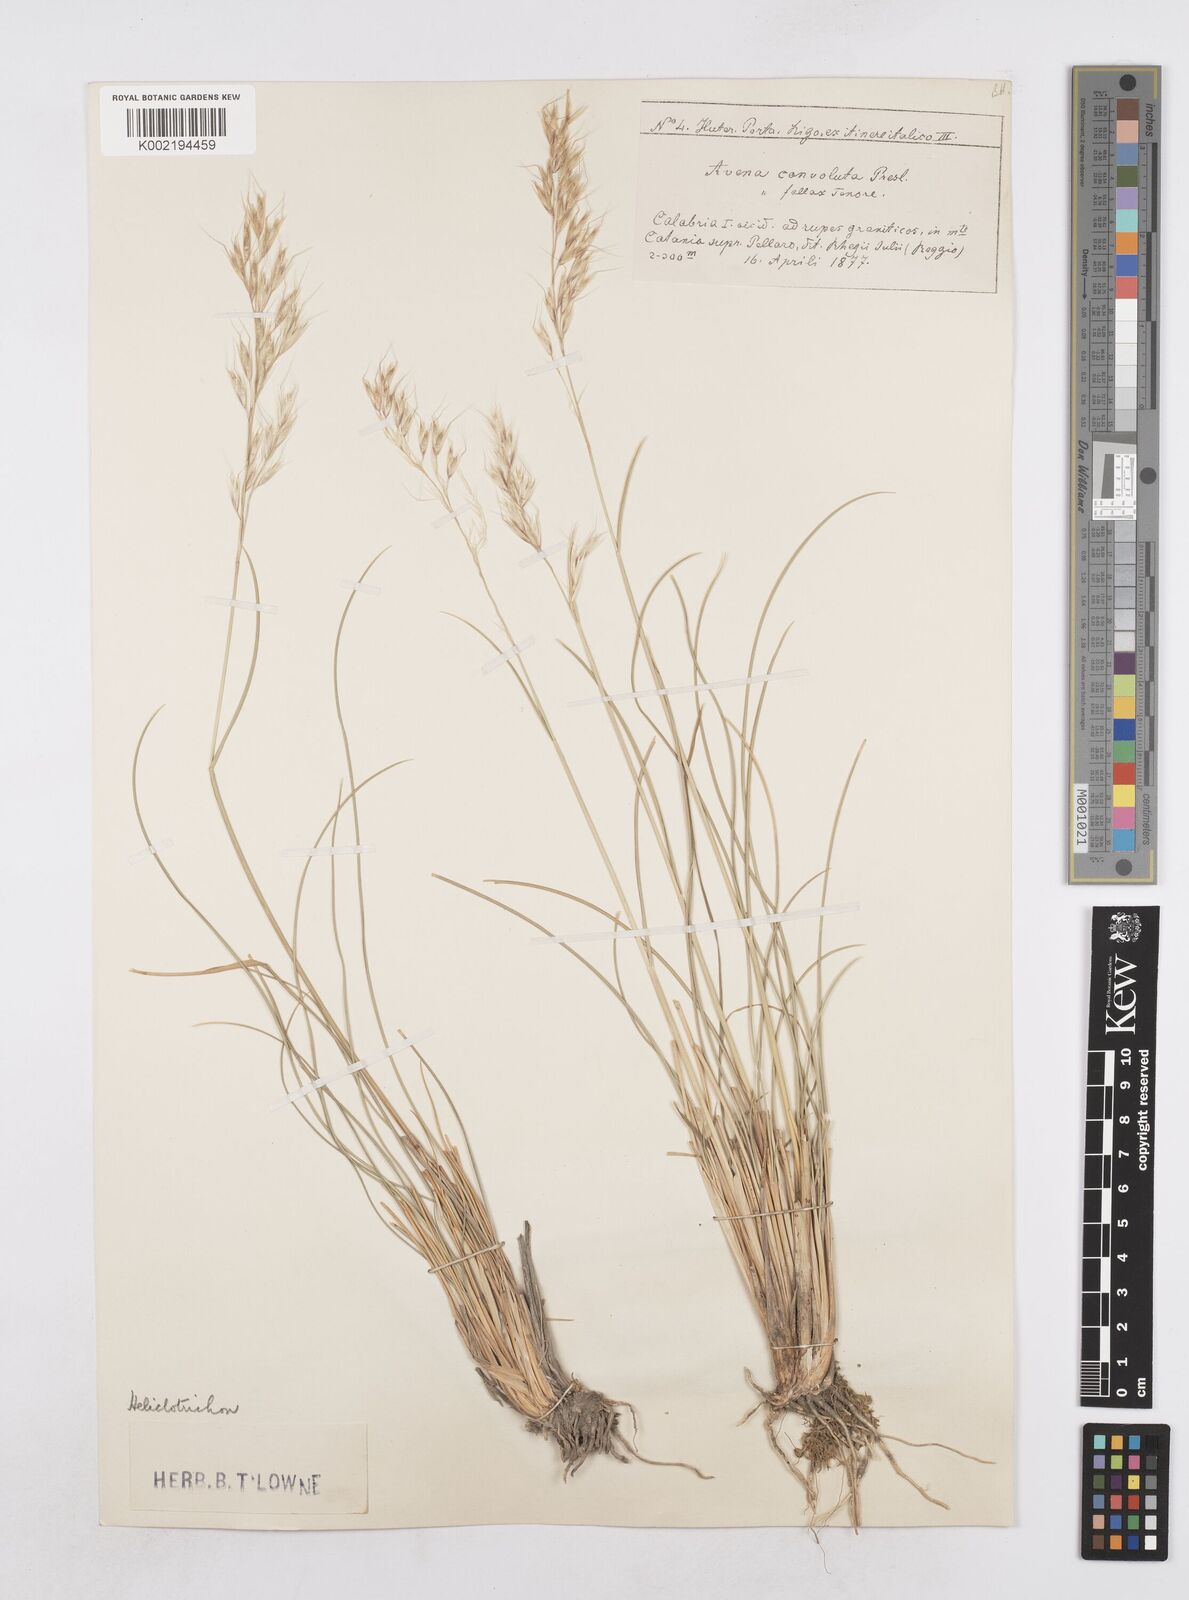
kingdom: Plantae
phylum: Tracheophyta
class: Liliopsida
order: Poales
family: Poaceae
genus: Helictotrichon
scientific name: Helictotrichon convolutum
